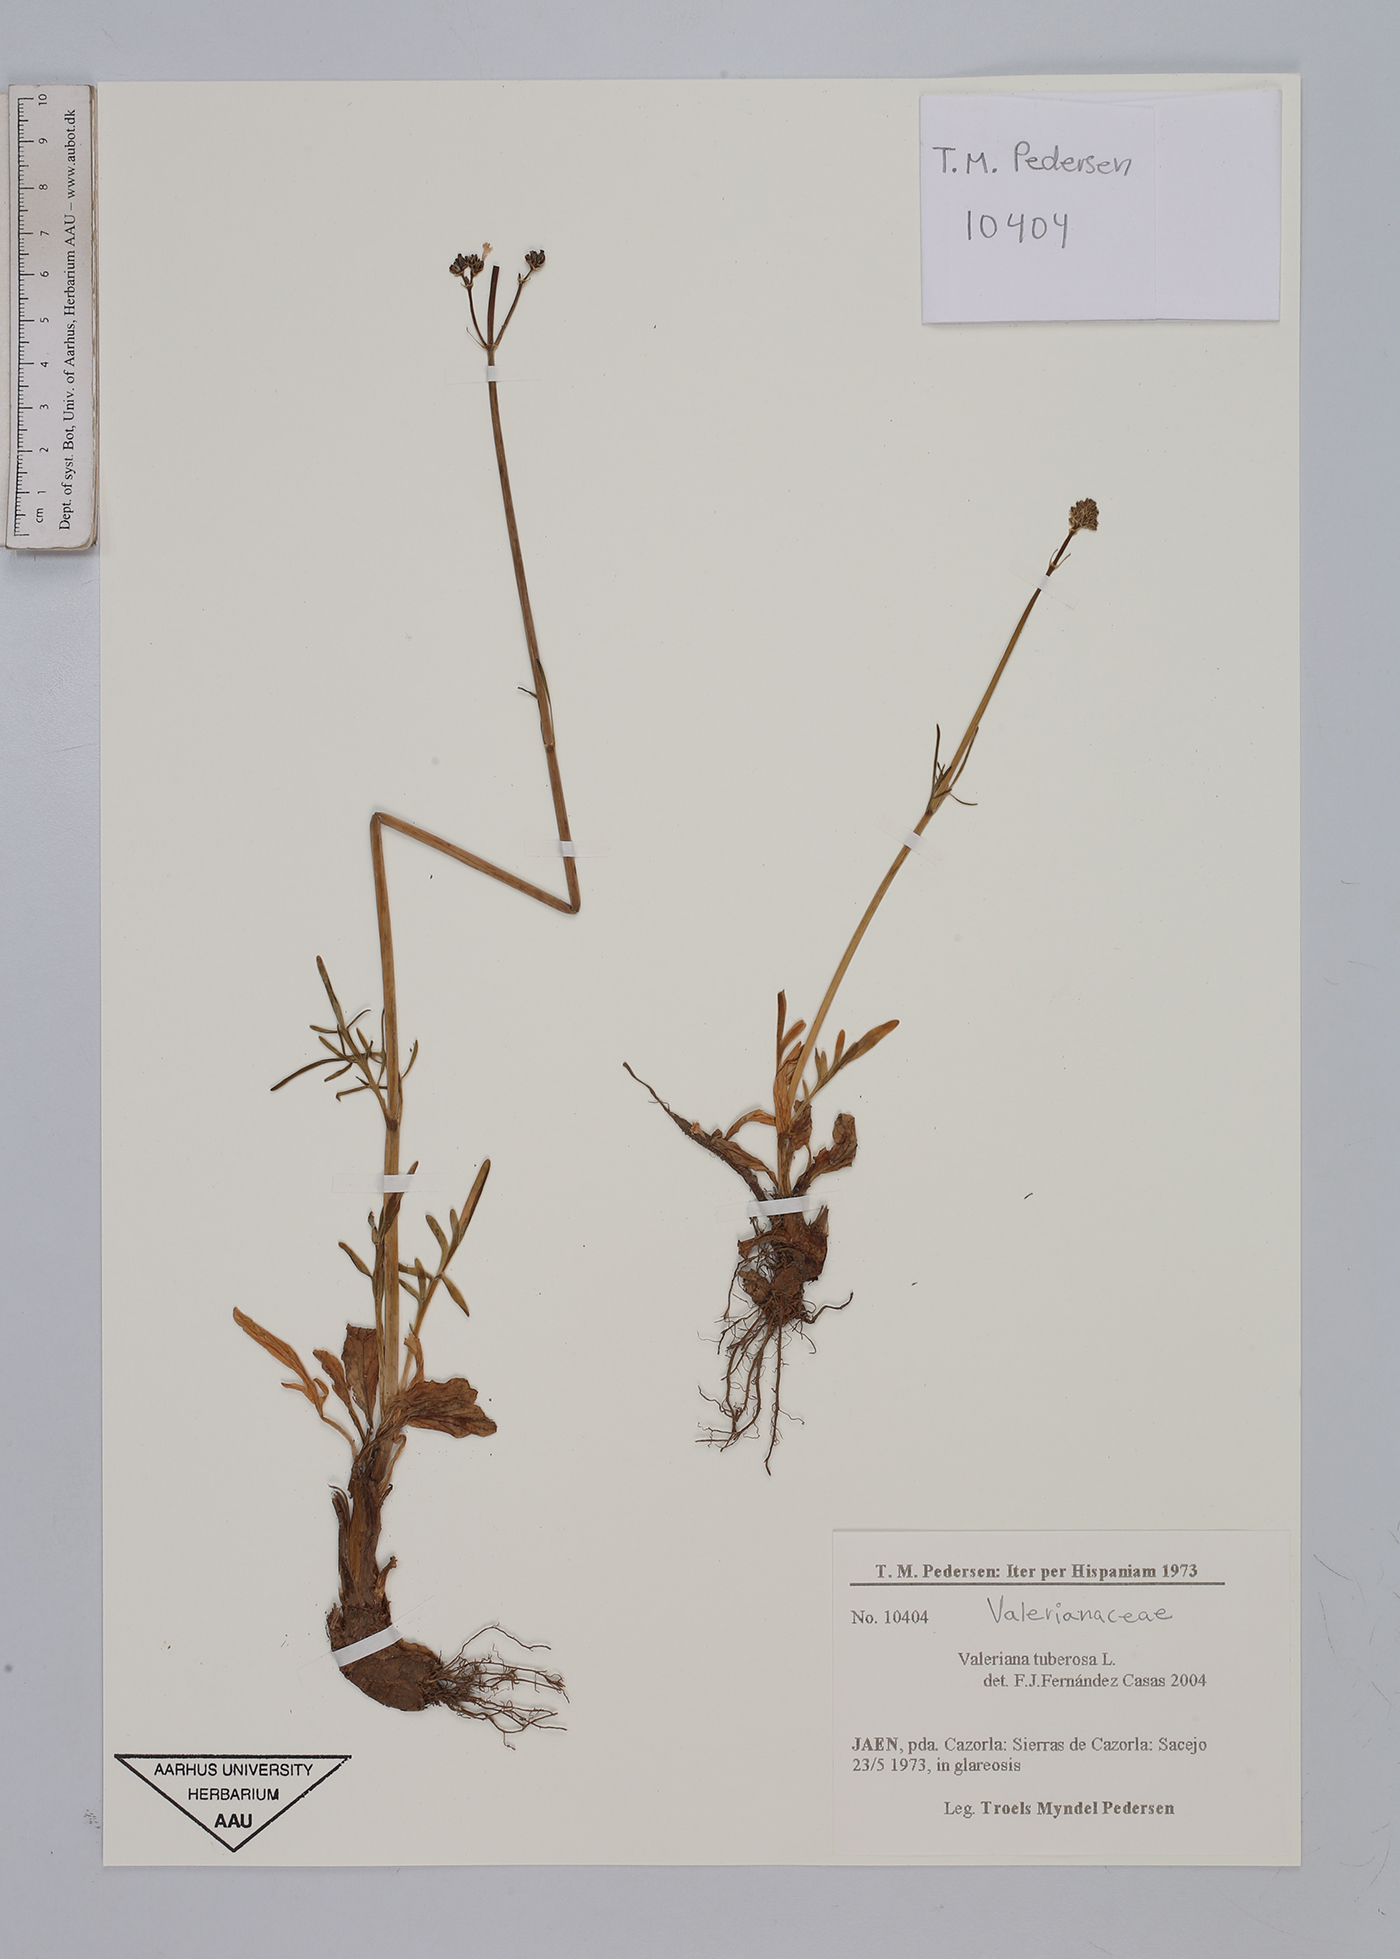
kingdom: Plantae
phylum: Tracheophyta
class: Magnoliopsida
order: Dipsacales
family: Caprifoliaceae
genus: Valeriana
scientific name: Valeriana tuberosa
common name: Tuberous valerian
